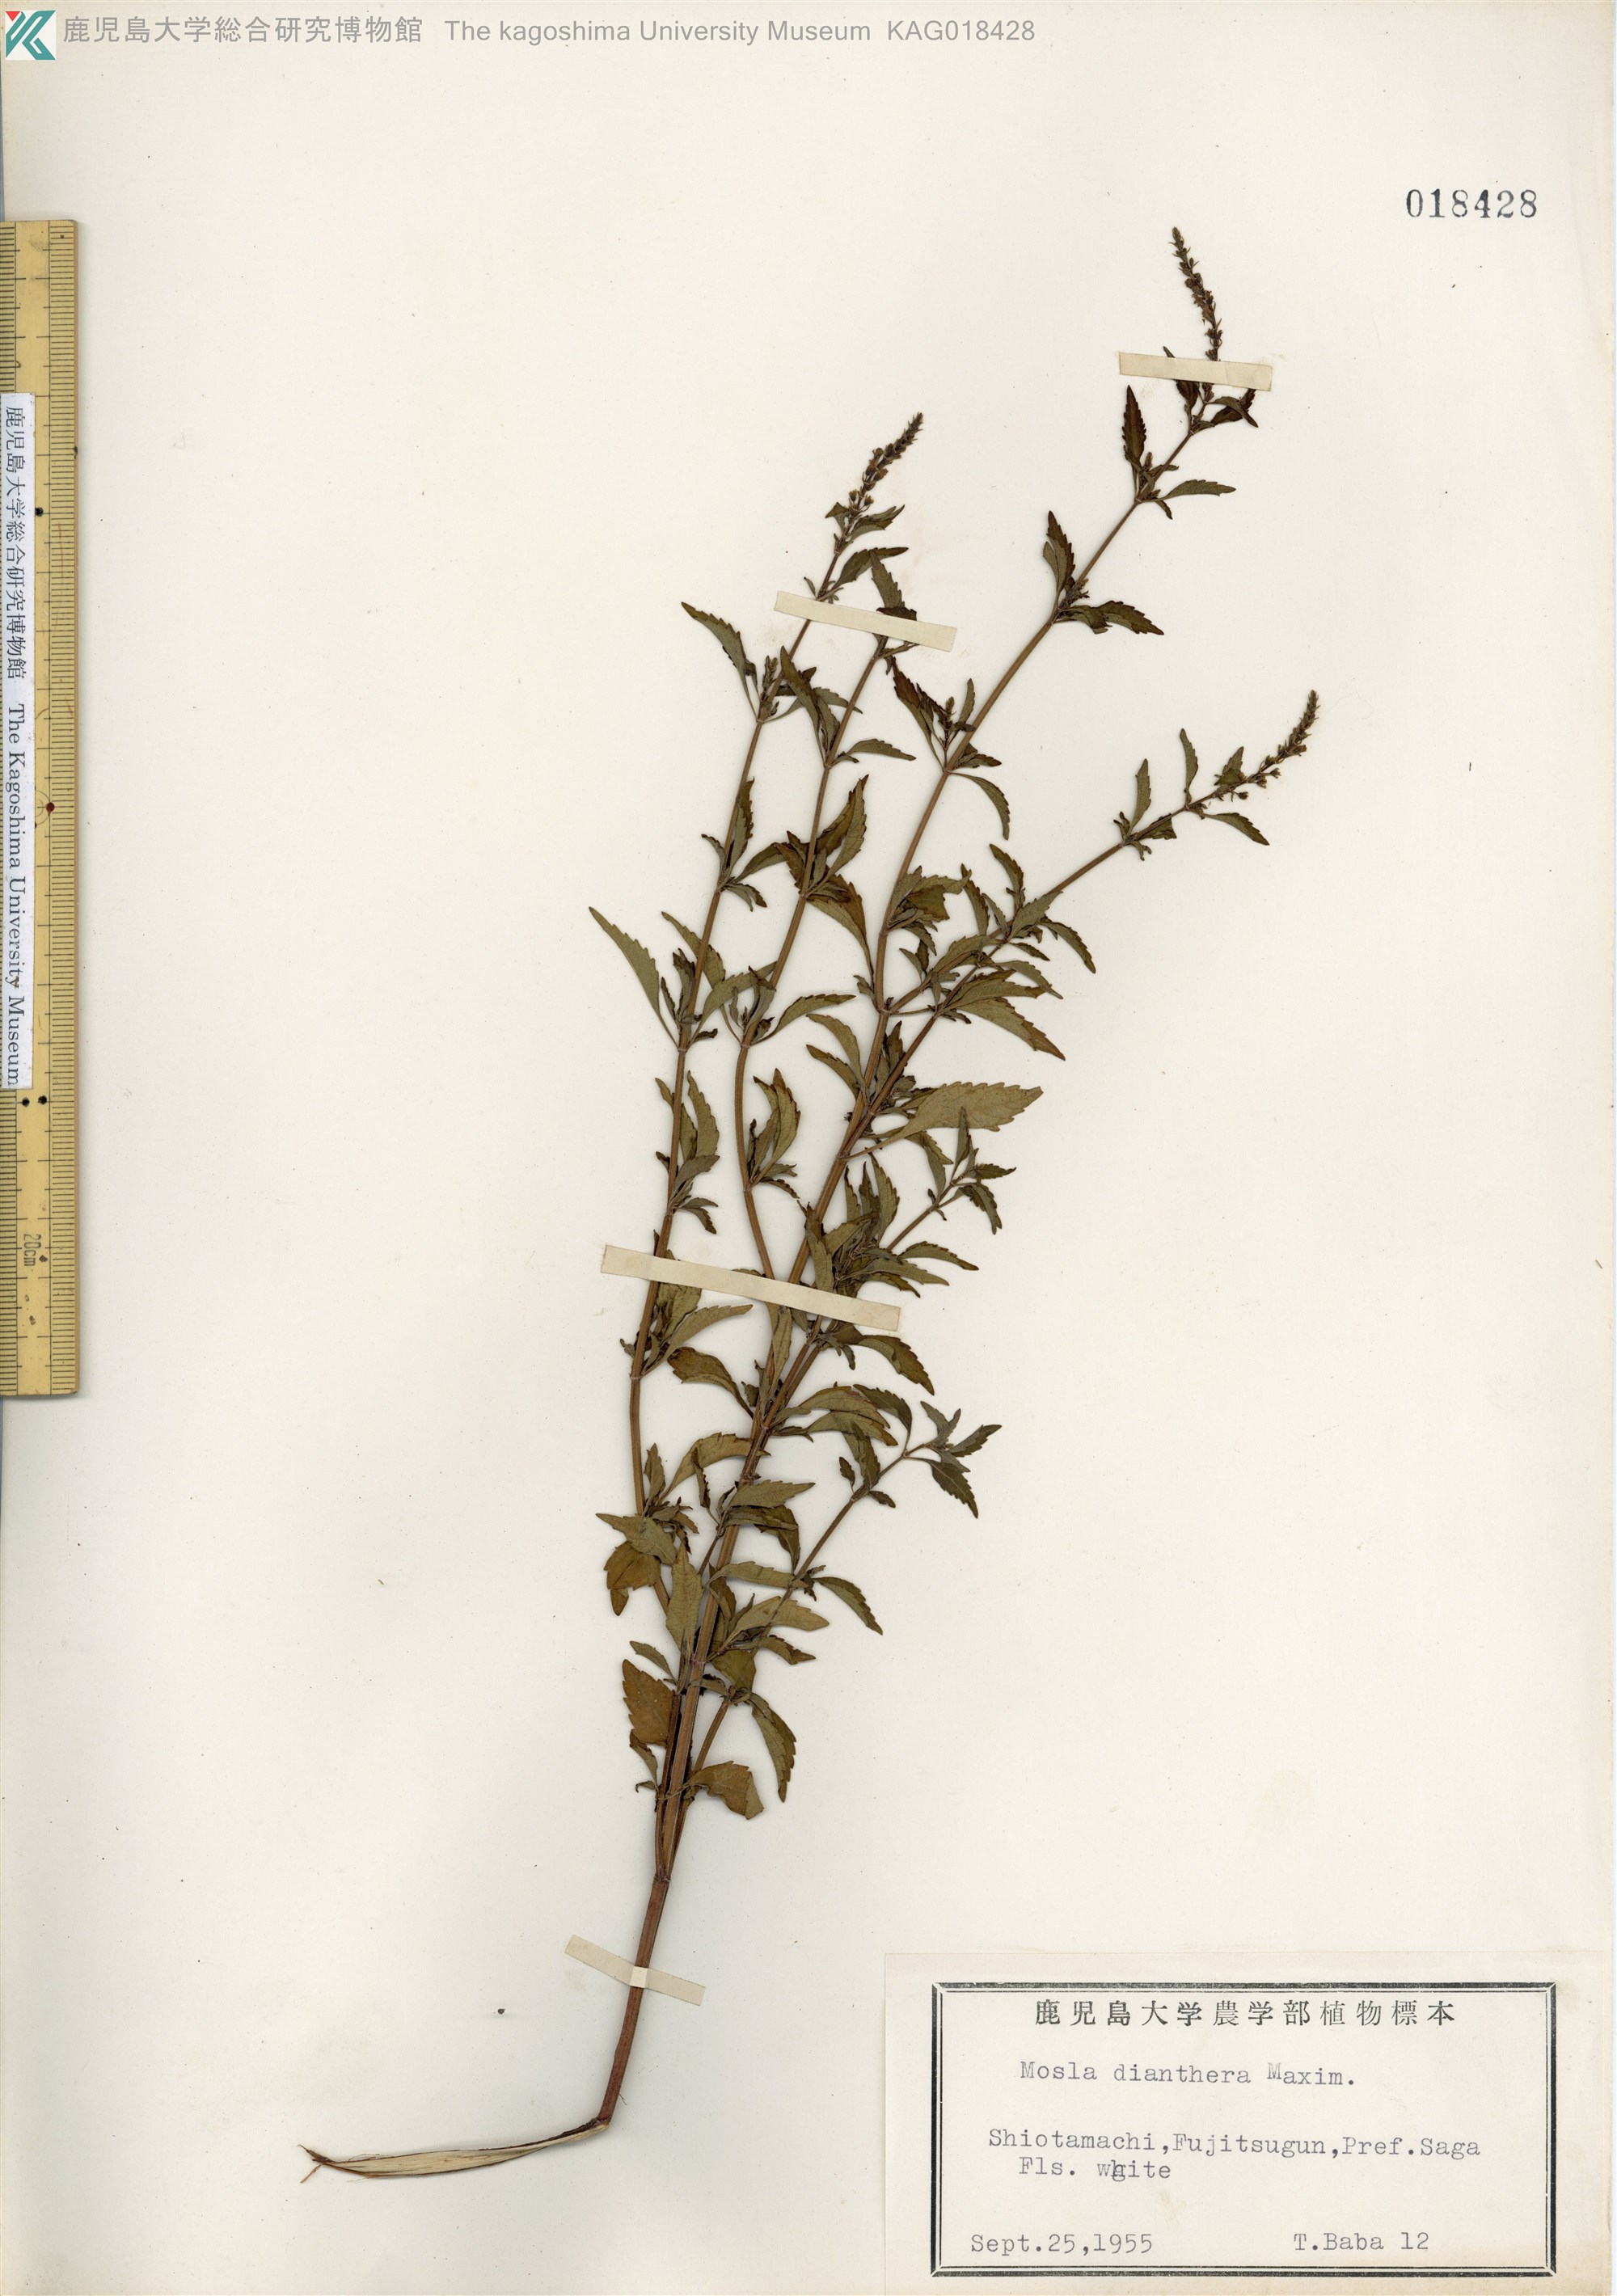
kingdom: Plantae
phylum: Tracheophyta
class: Magnoliopsida
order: Lamiales
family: Lamiaceae
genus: Mosla
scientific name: Mosla dianthera
